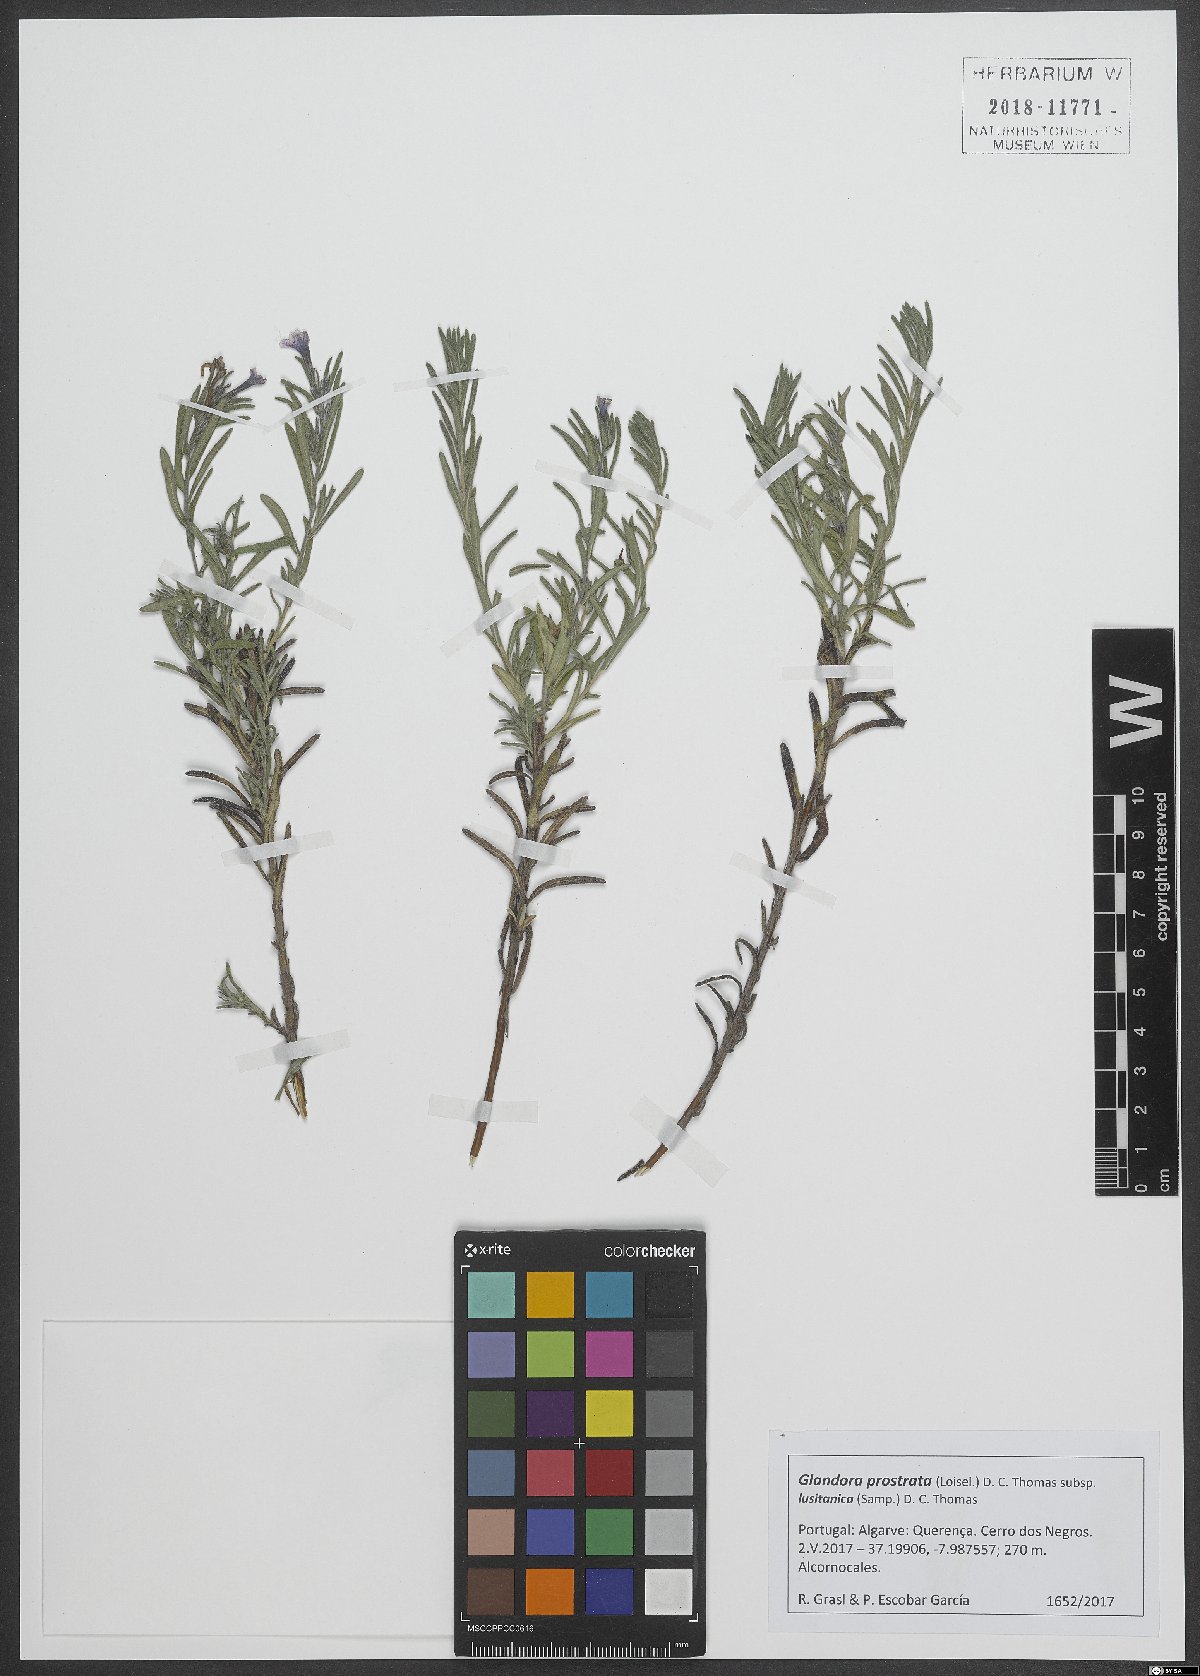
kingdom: Plantae
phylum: Tracheophyta
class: Magnoliopsida
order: Boraginales
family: Boraginaceae
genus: Glandora
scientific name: Glandora prostrata
